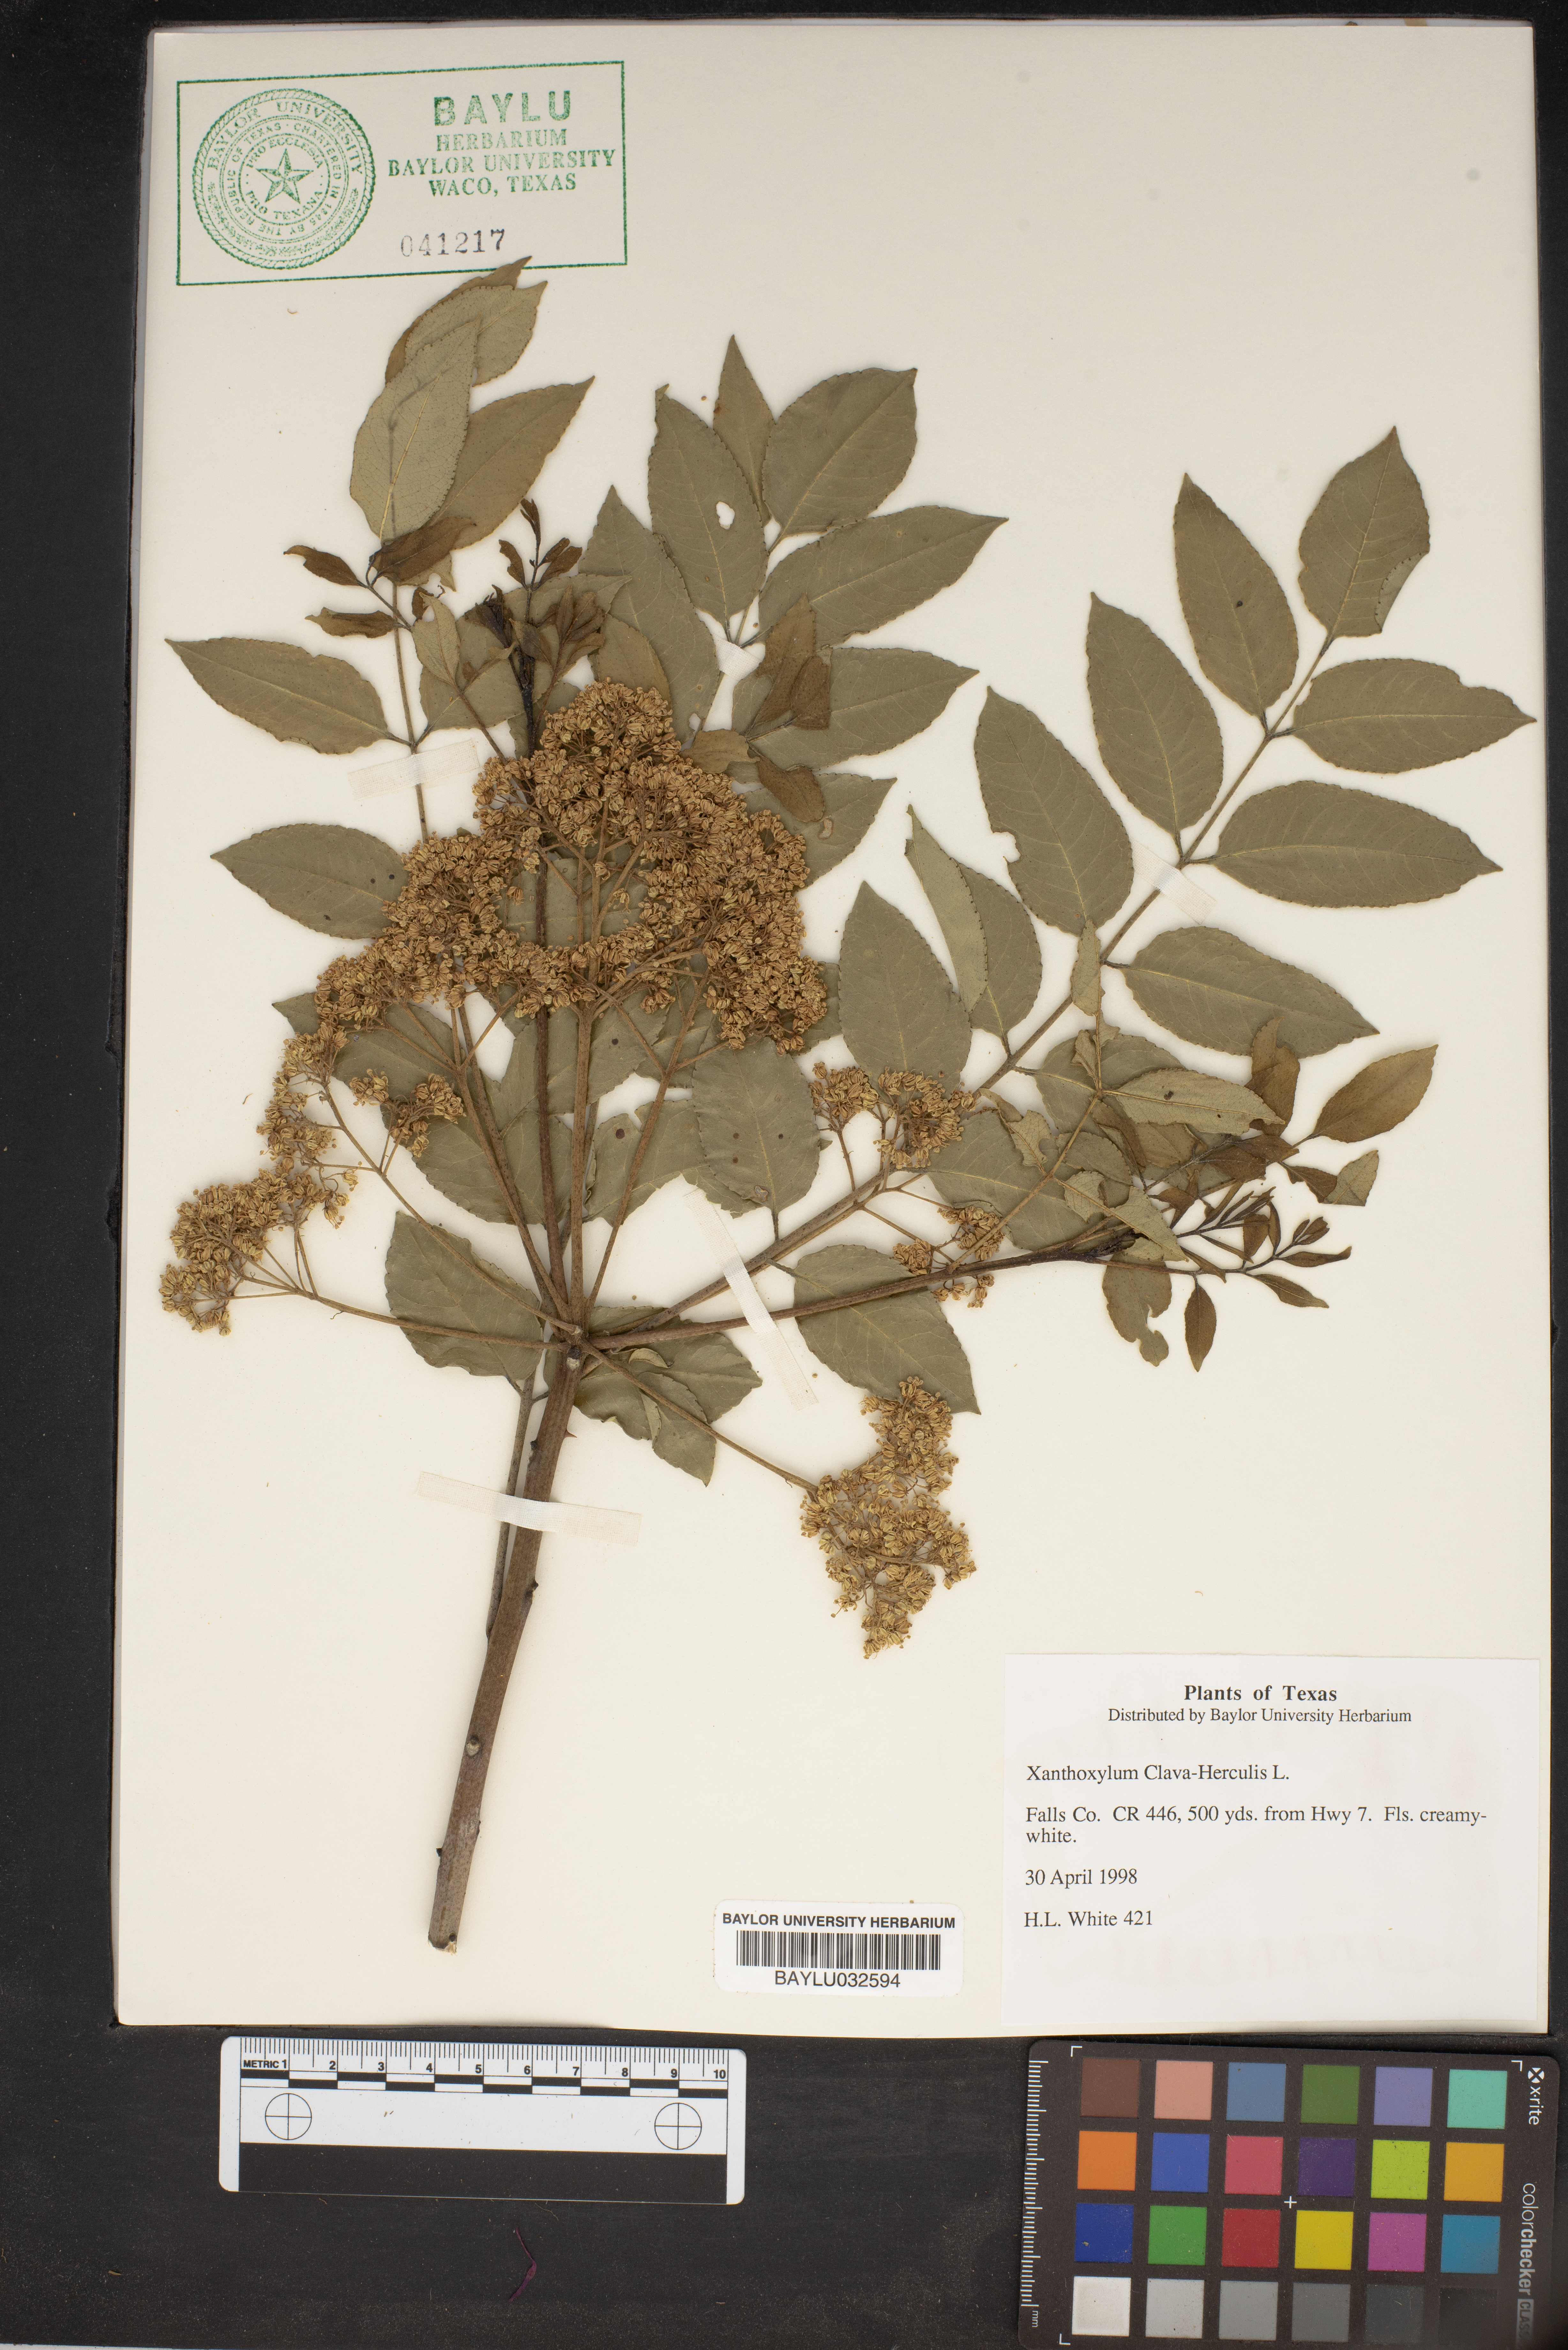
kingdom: Plantae
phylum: Tracheophyta
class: Magnoliopsida
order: Sapindales
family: Rutaceae
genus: Zanthoxylum
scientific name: Zanthoxylum
